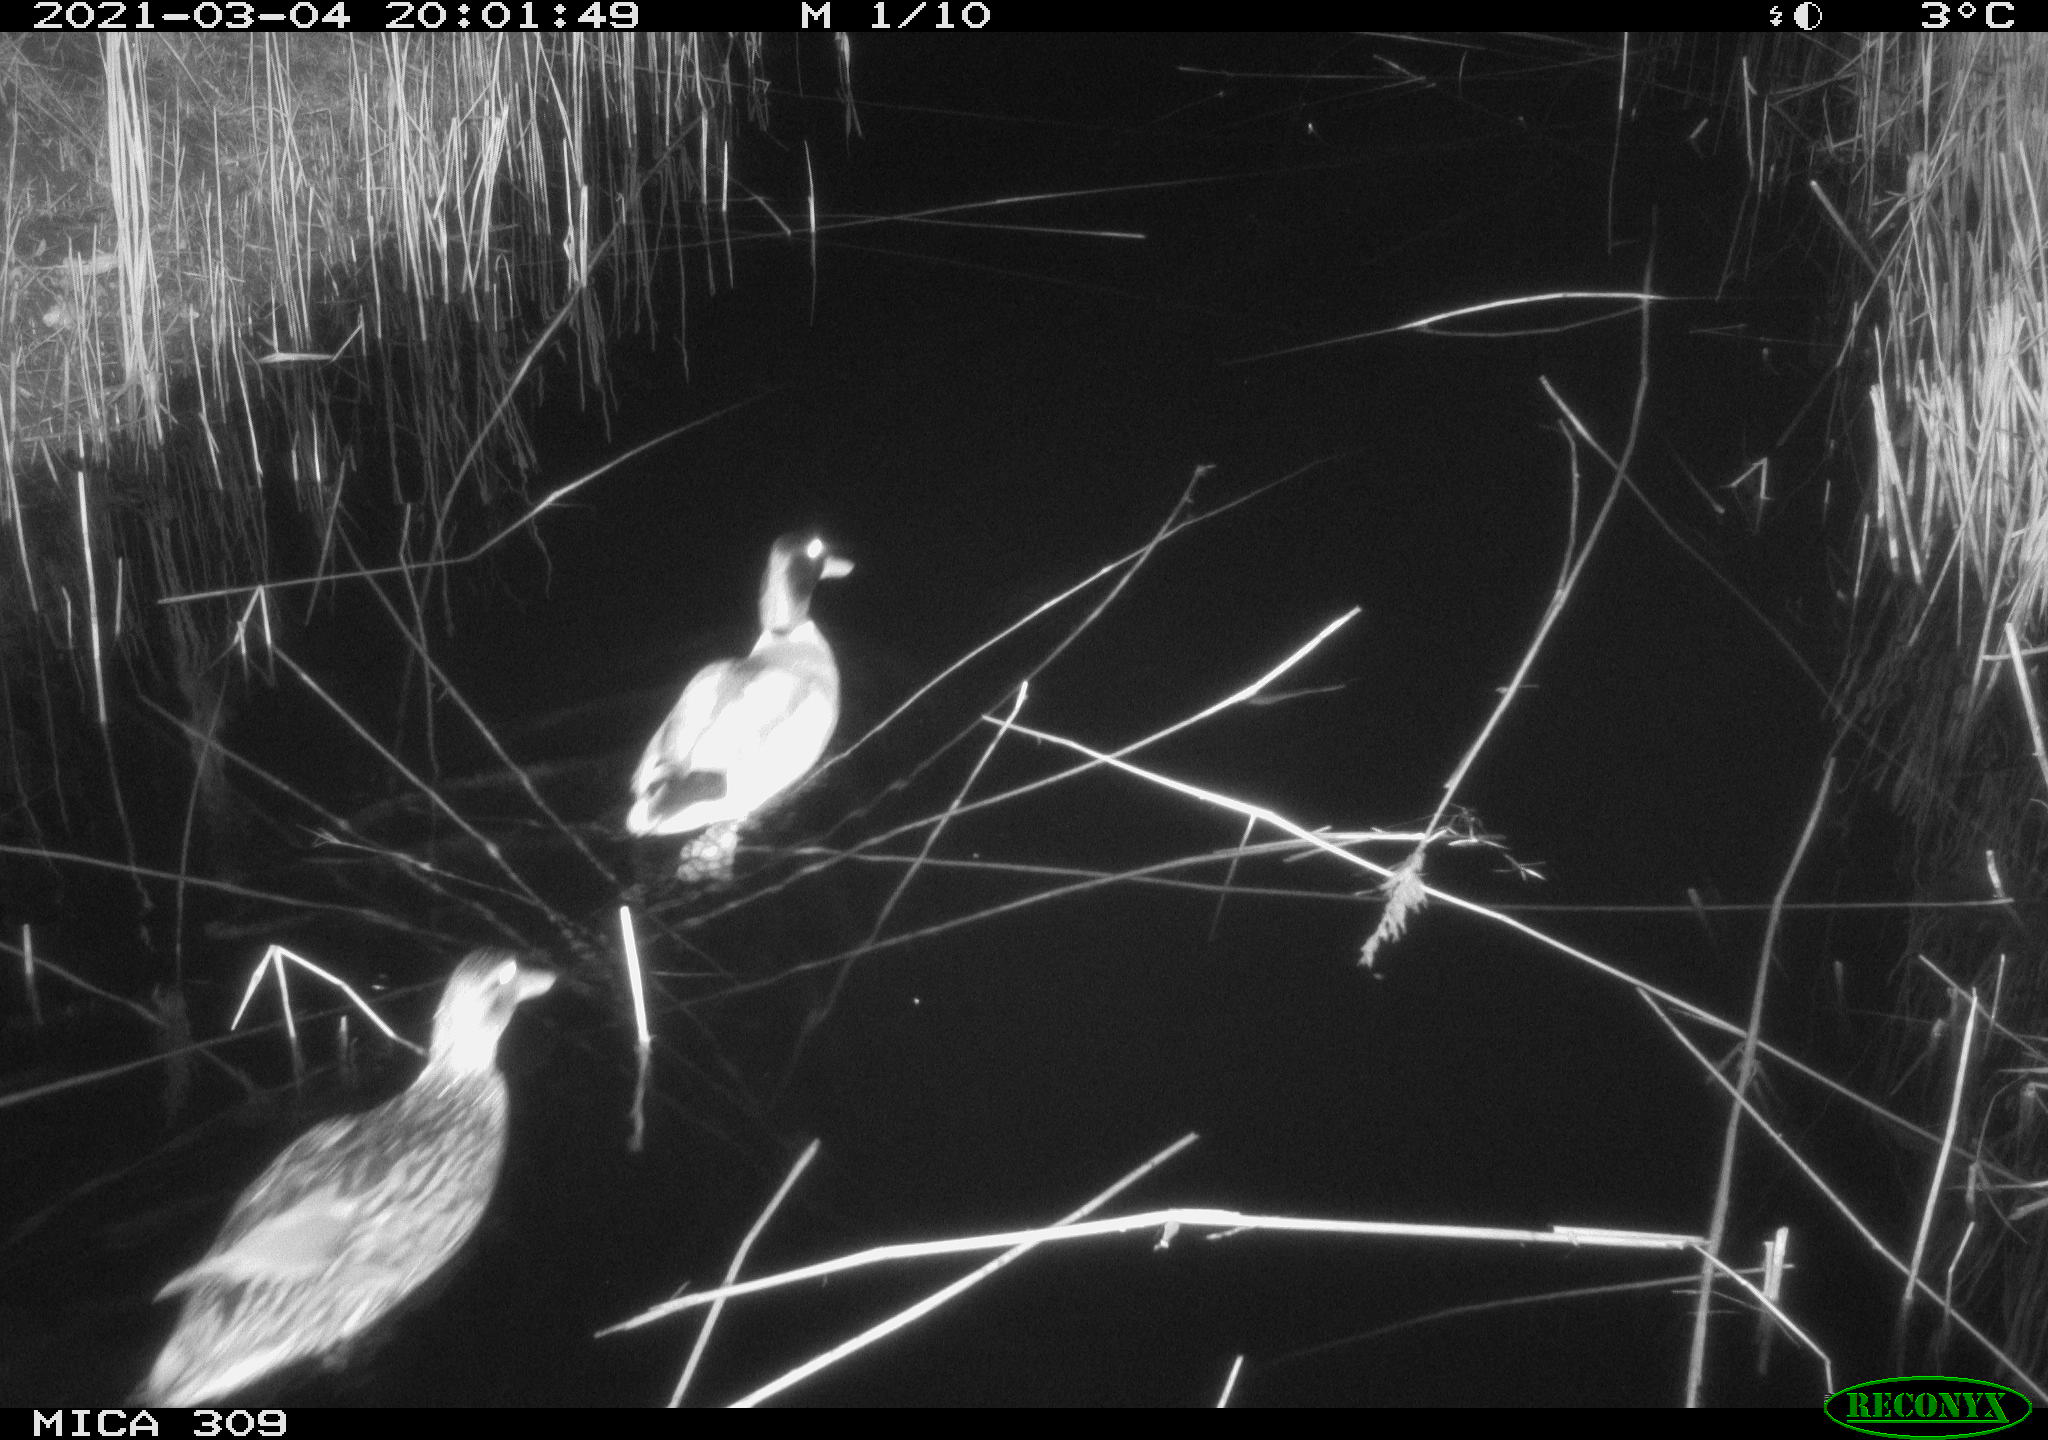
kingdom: Animalia
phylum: Chordata
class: Aves
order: Anseriformes
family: Anatidae
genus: Anas
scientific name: Anas platyrhynchos
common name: Mallard
